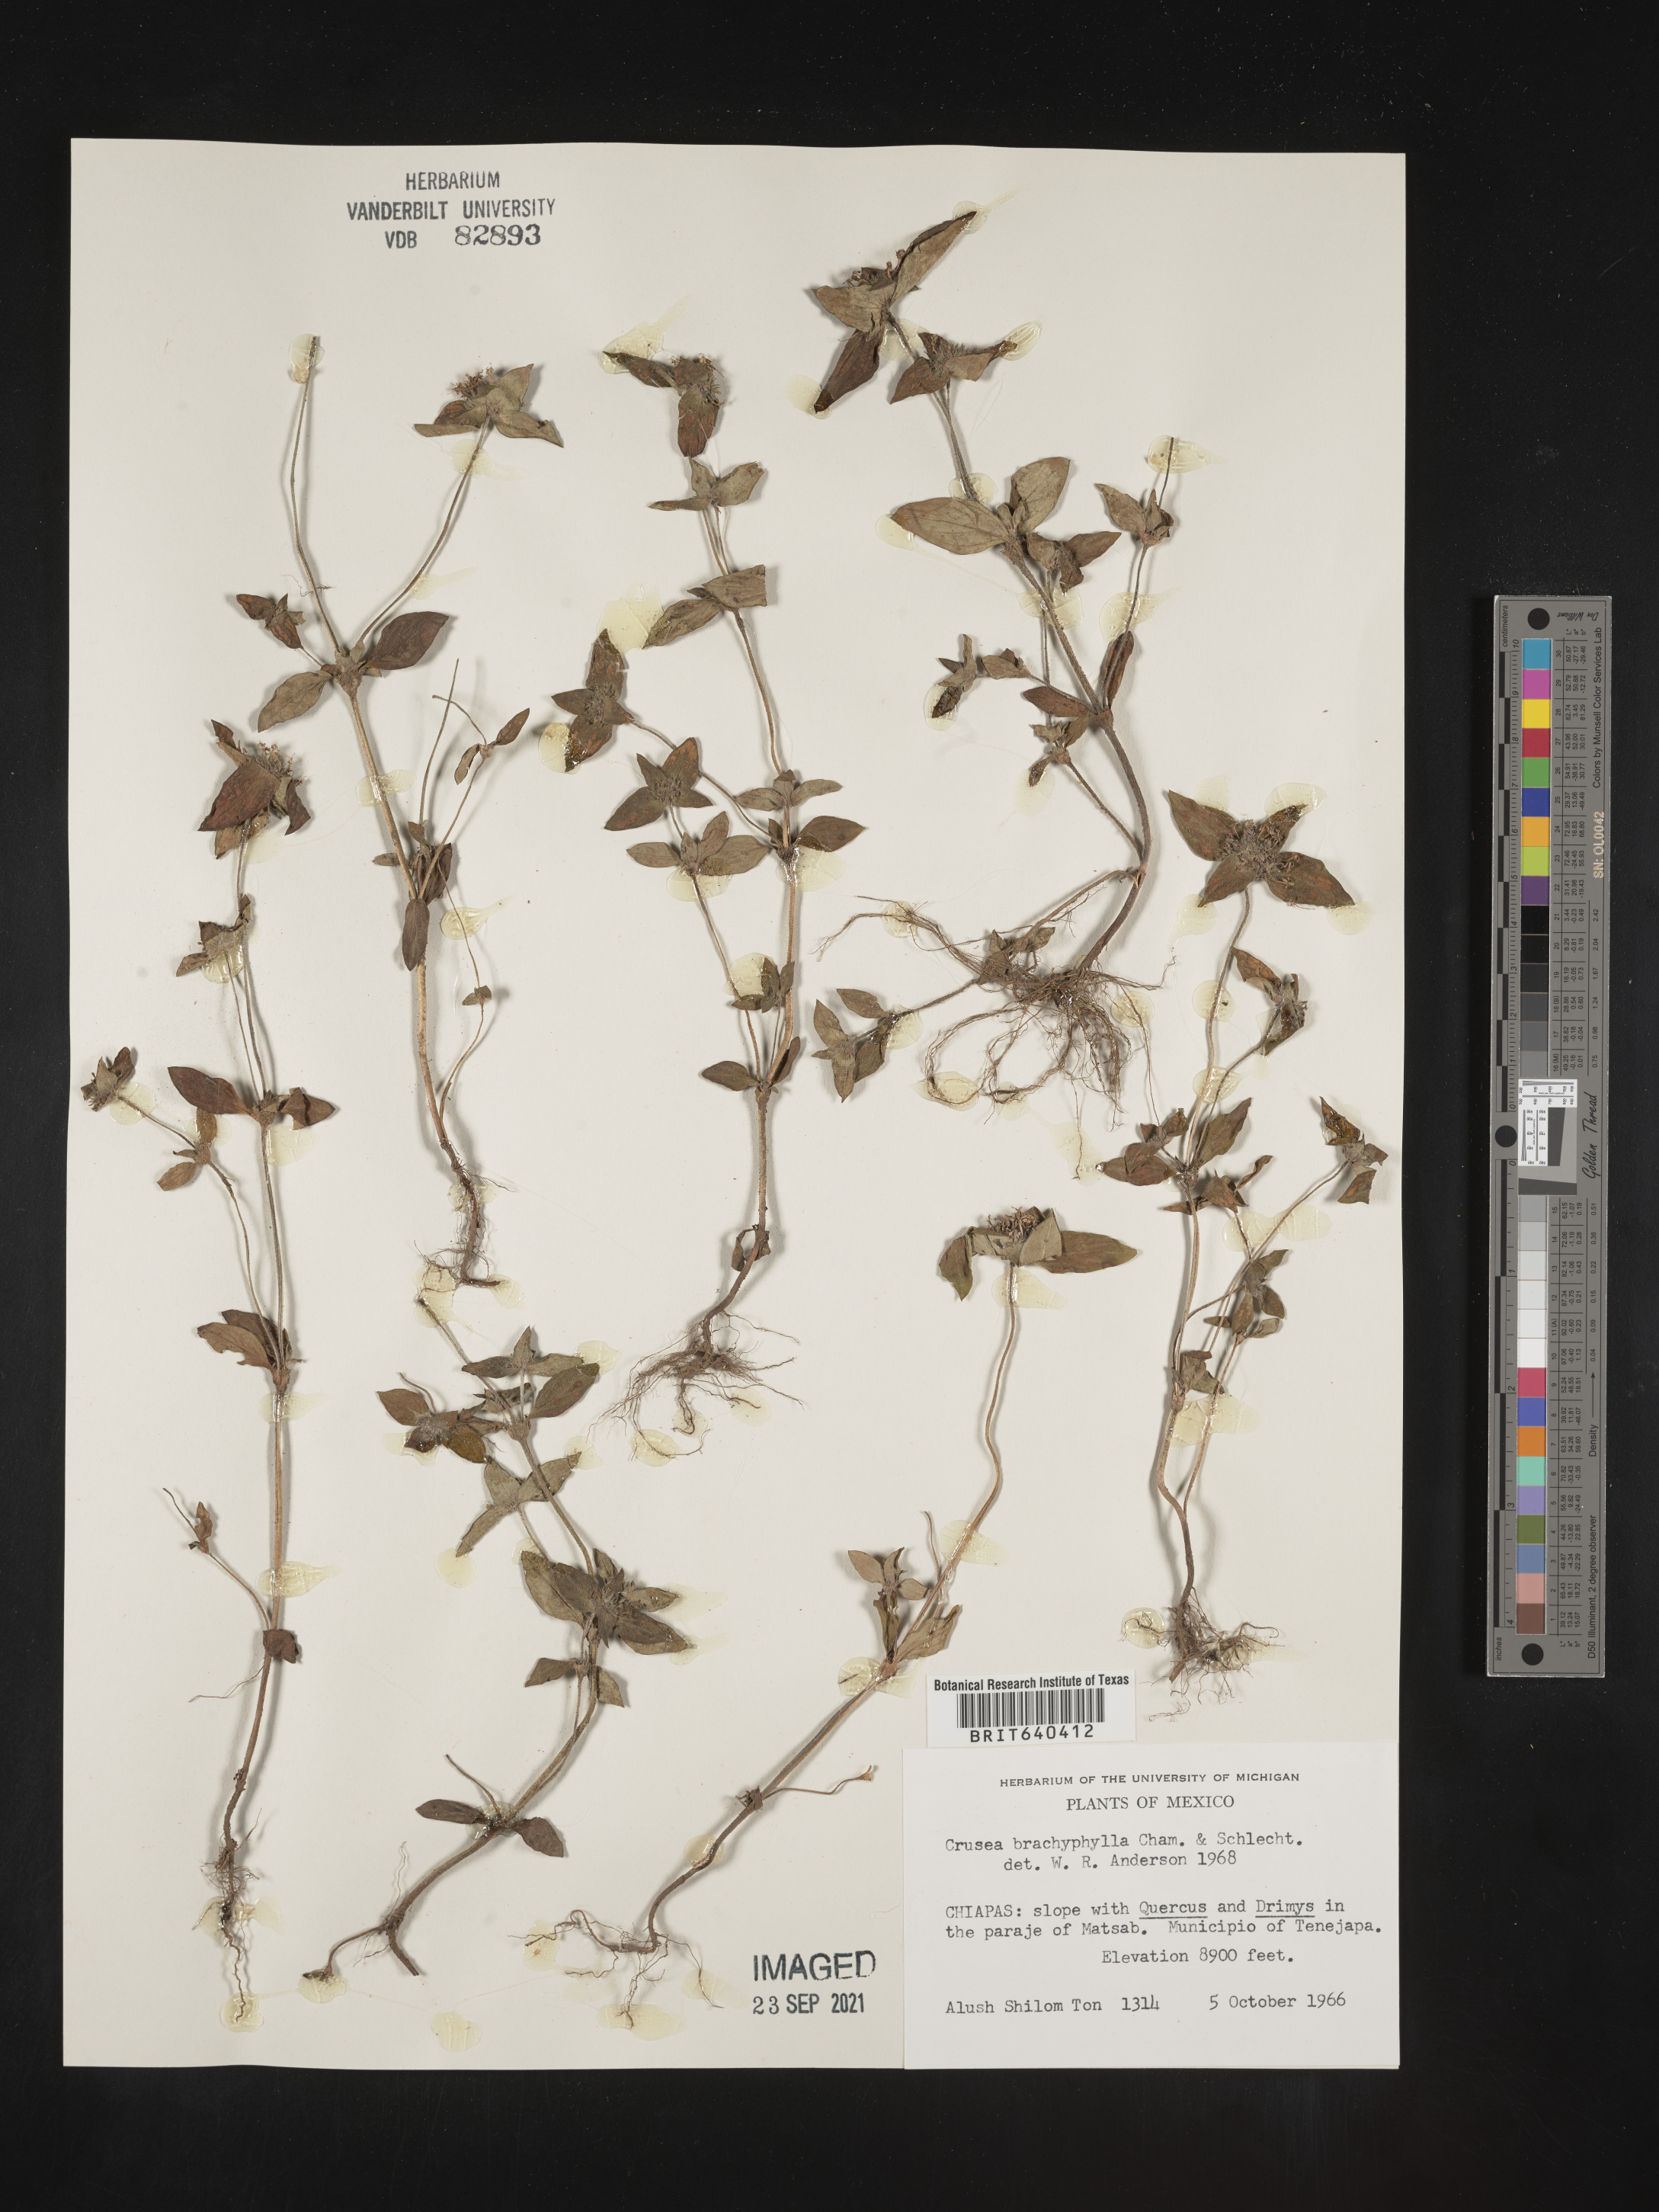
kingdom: Plantae
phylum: Tracheophyta
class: Magnoliopsida
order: Gentianales
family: Rubiaceae
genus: Crusea
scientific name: Crusea
